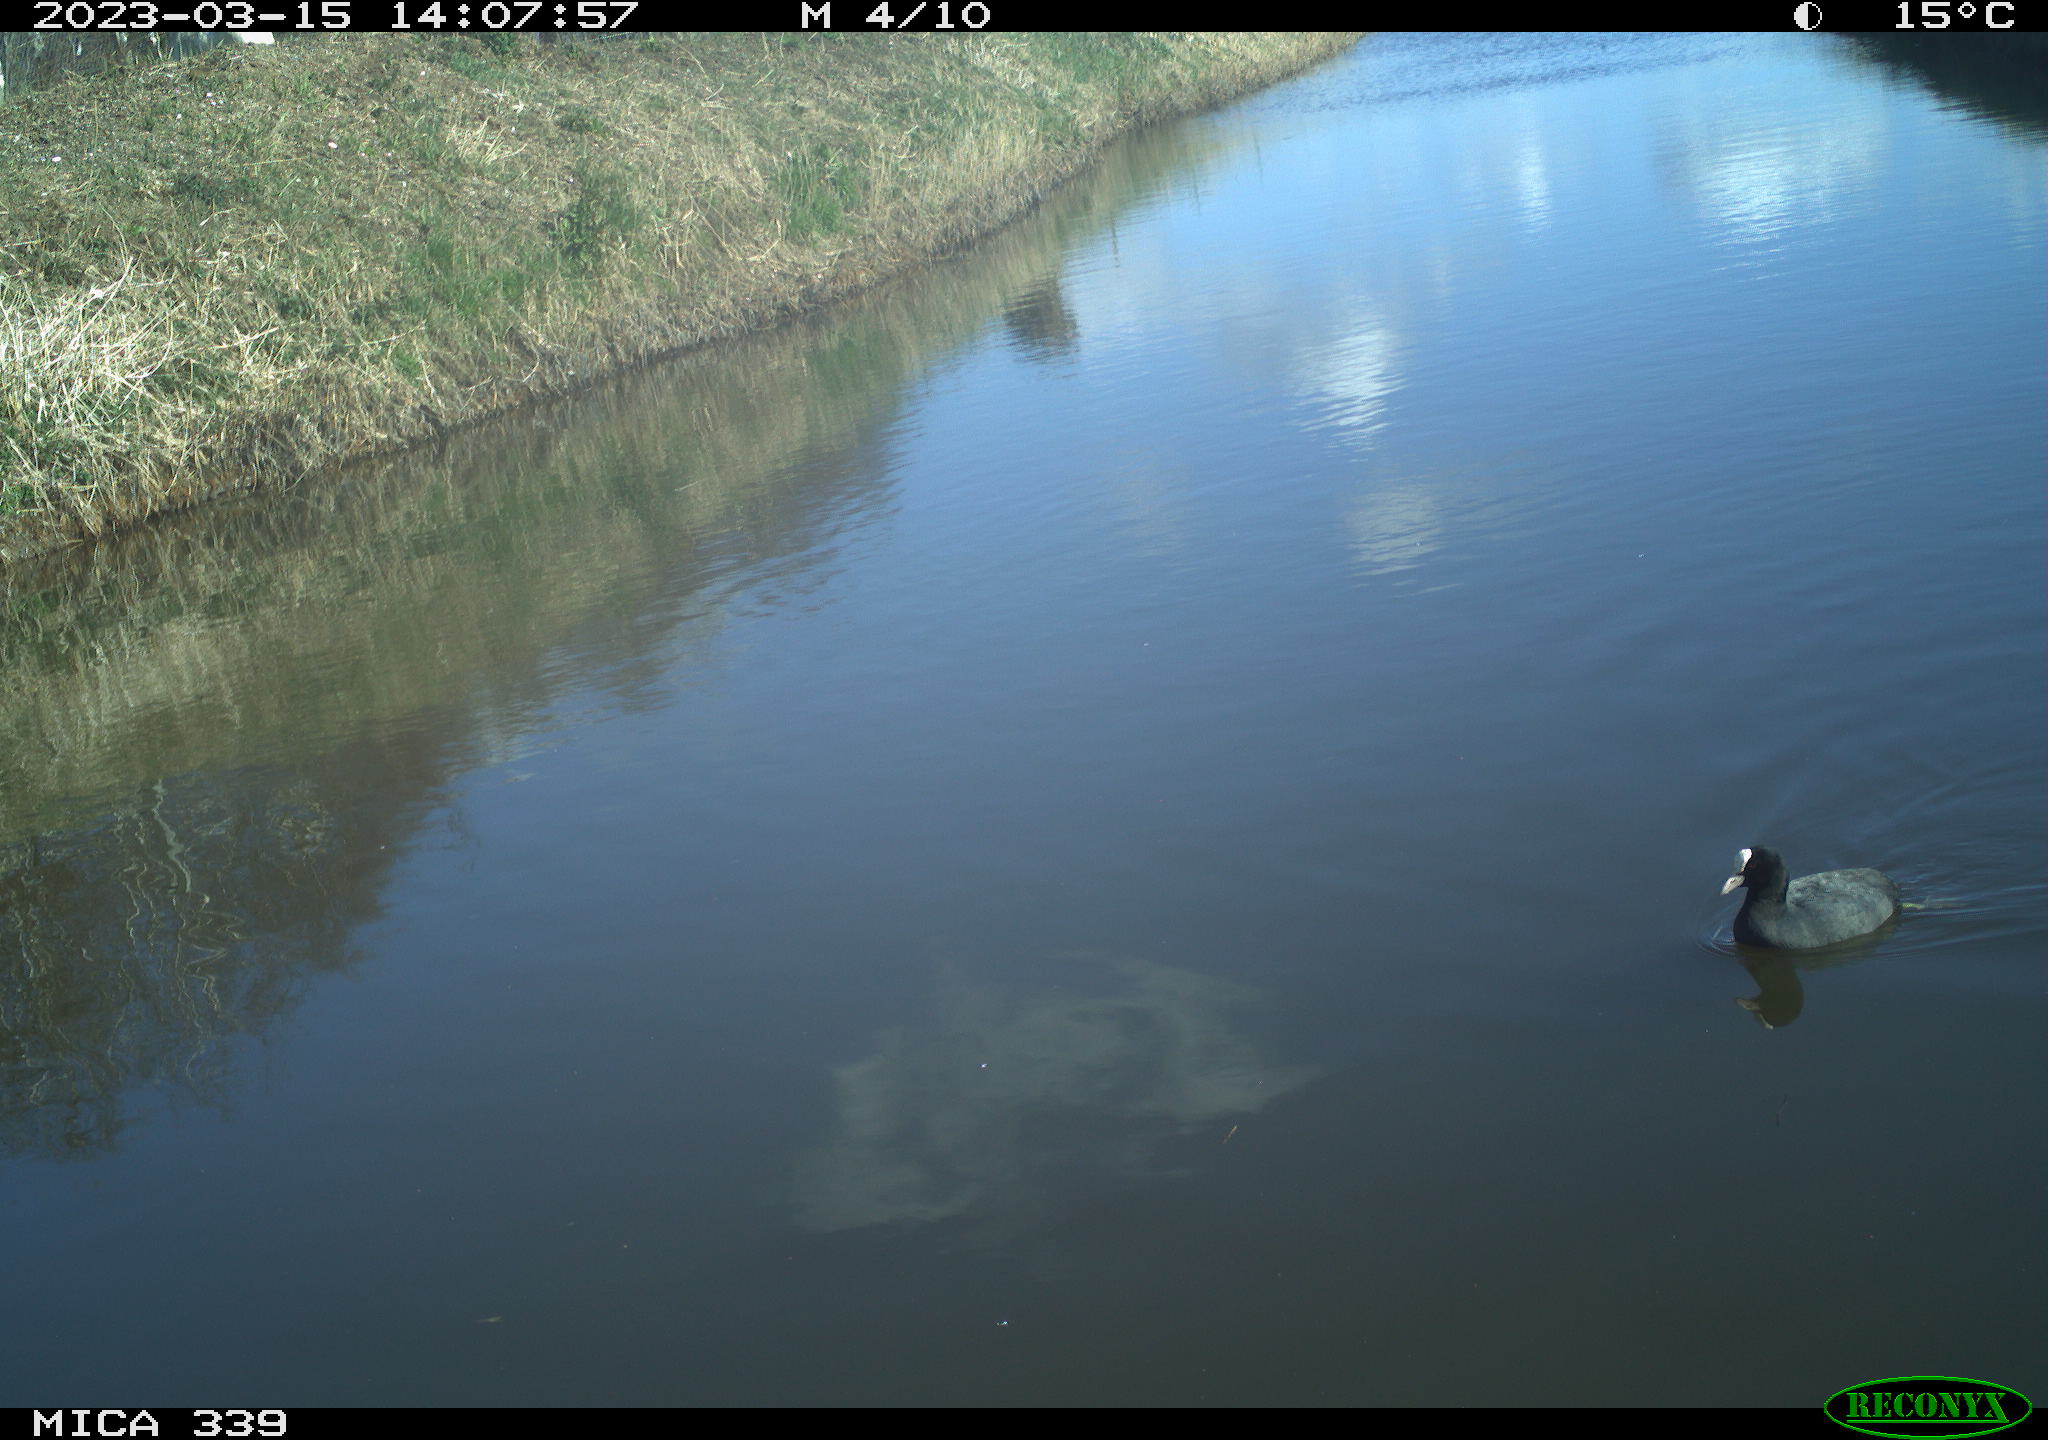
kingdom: Animalia
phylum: Chordata
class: Aves
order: Anseriformes
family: Anatidae
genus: Anas
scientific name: Anas
